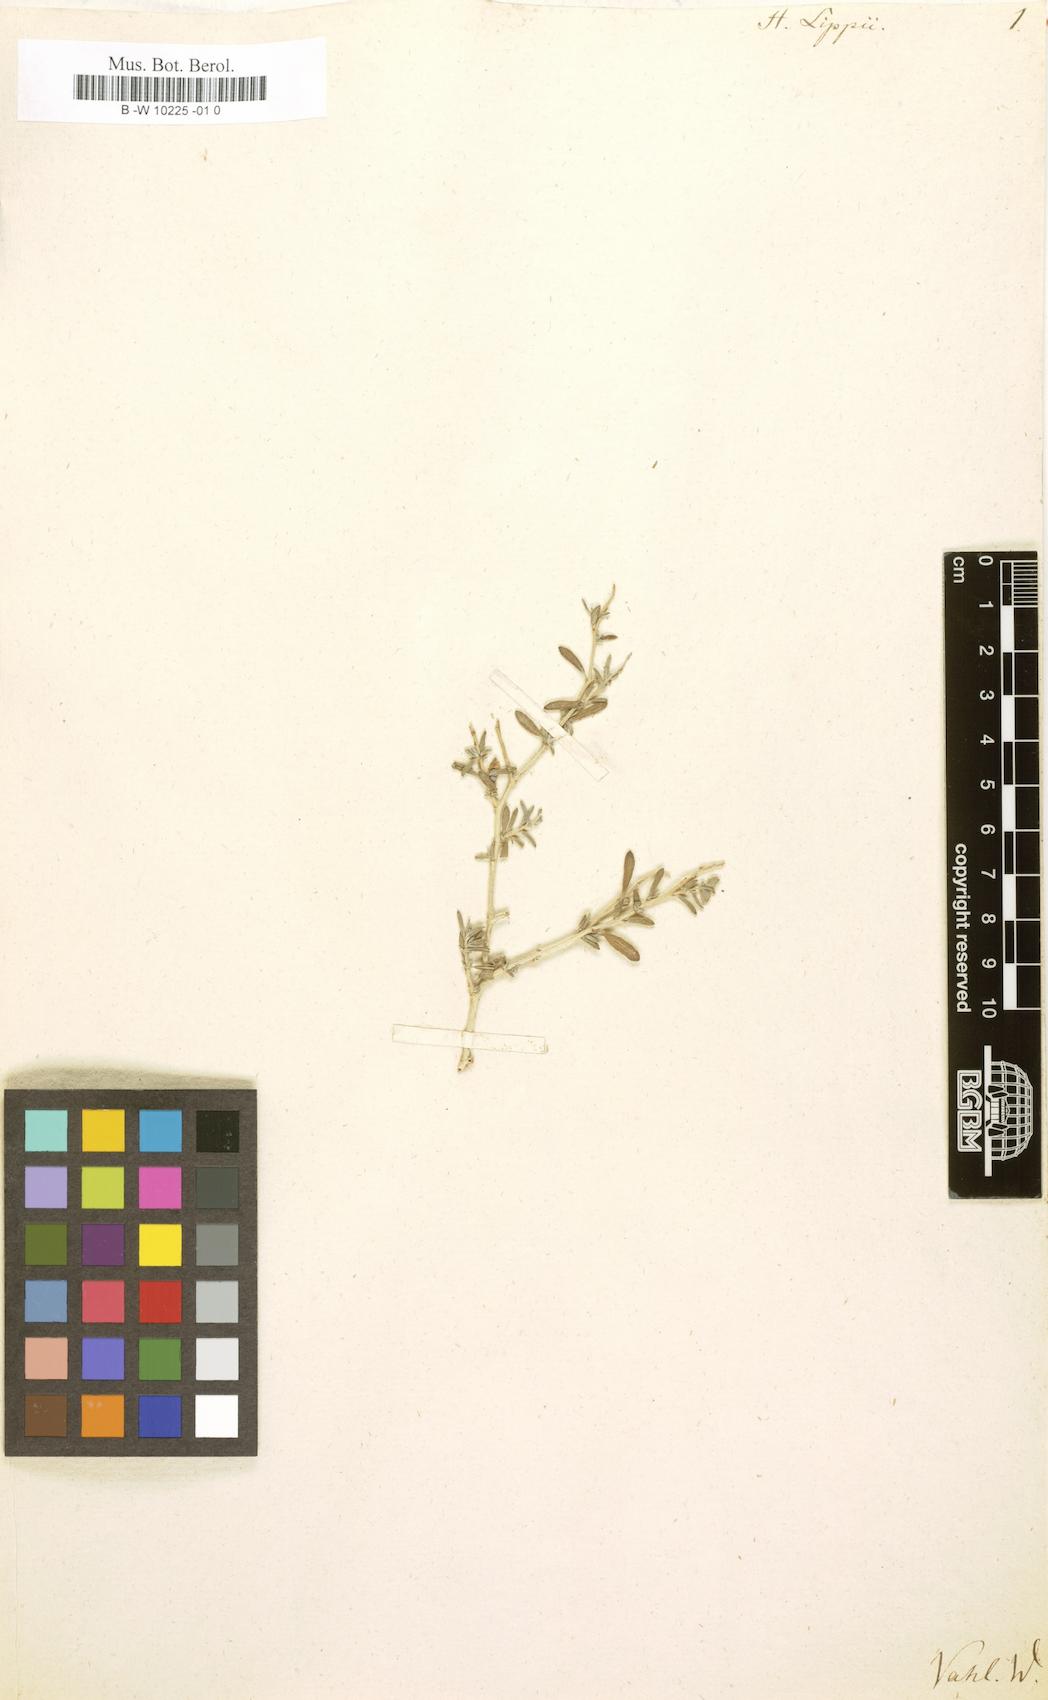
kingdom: Plantae
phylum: Tracheophyta
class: Magnoliopsida
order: Malvales
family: Cistaceae
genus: Helianthemum
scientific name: Helianthemum lippii
